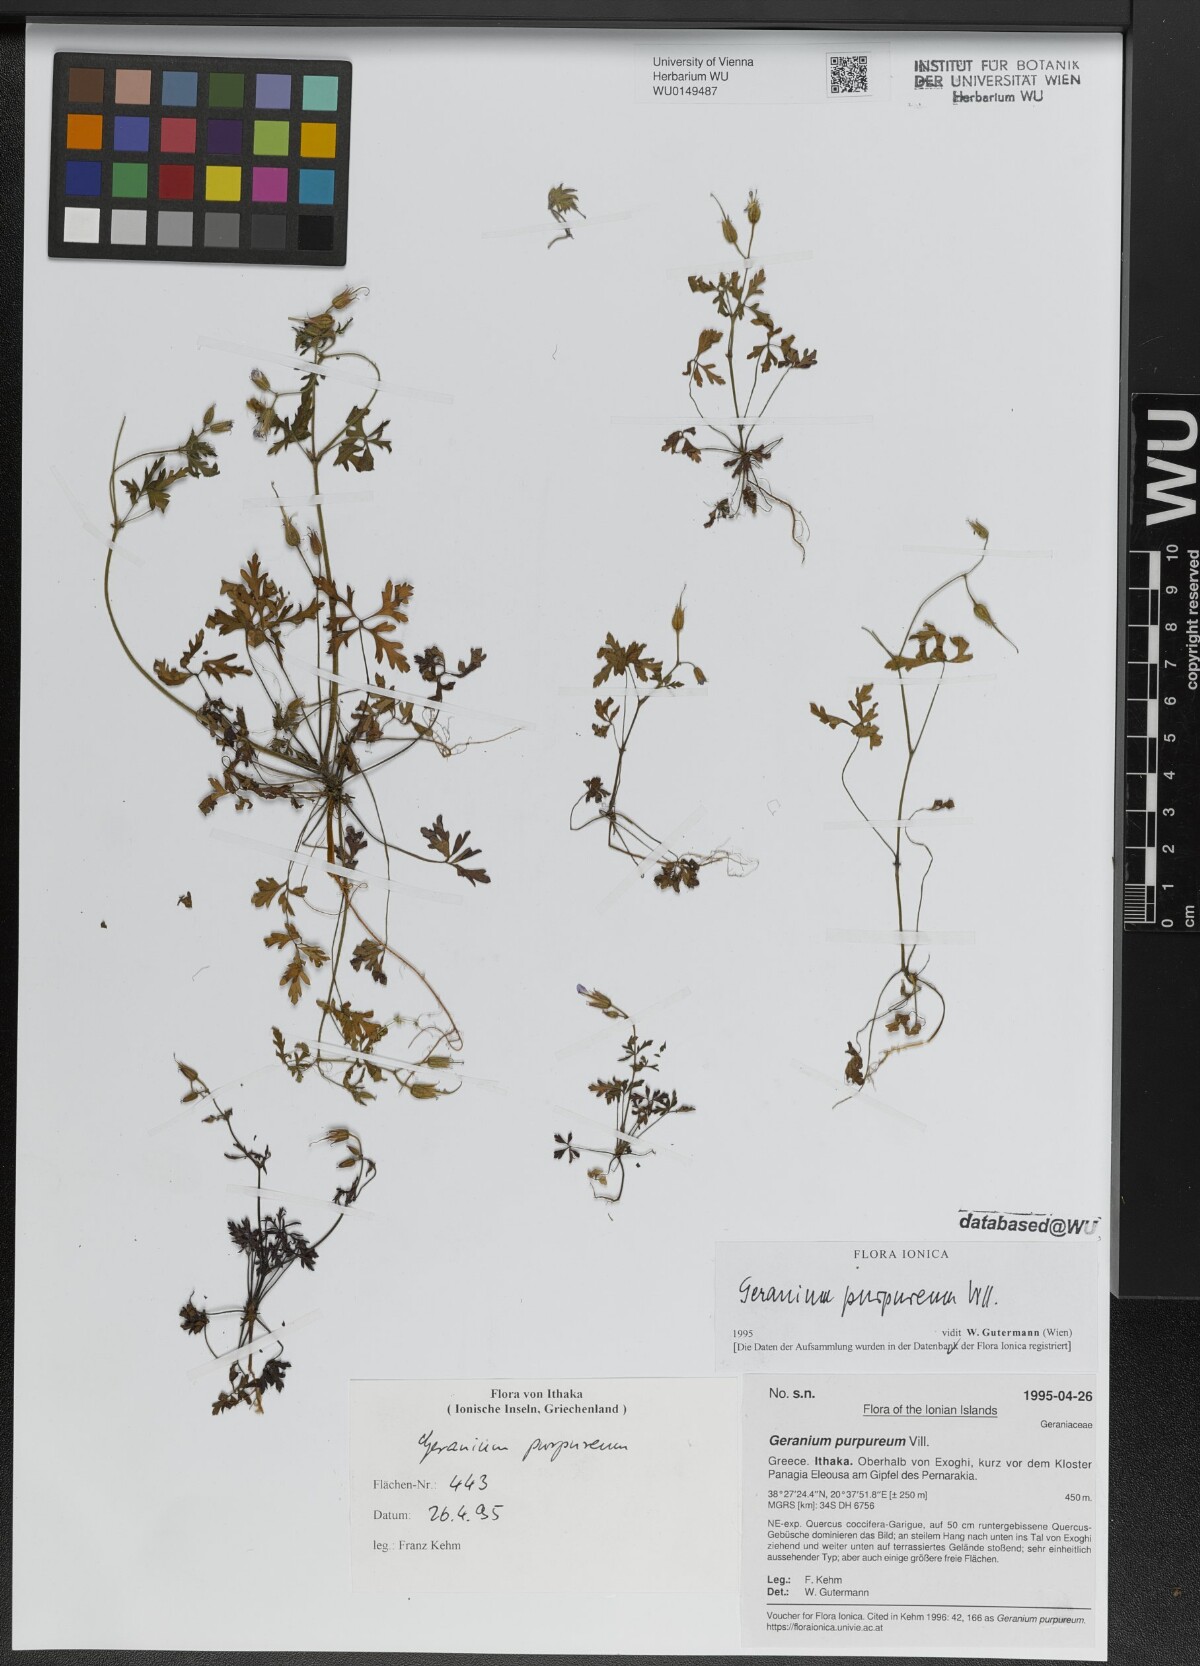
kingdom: Plantae
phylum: Tracheophyta
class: Magnoliopsida
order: Geraniales
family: Geraniaceae
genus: Geranium
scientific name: Geranium purpureum
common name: Little-robin
